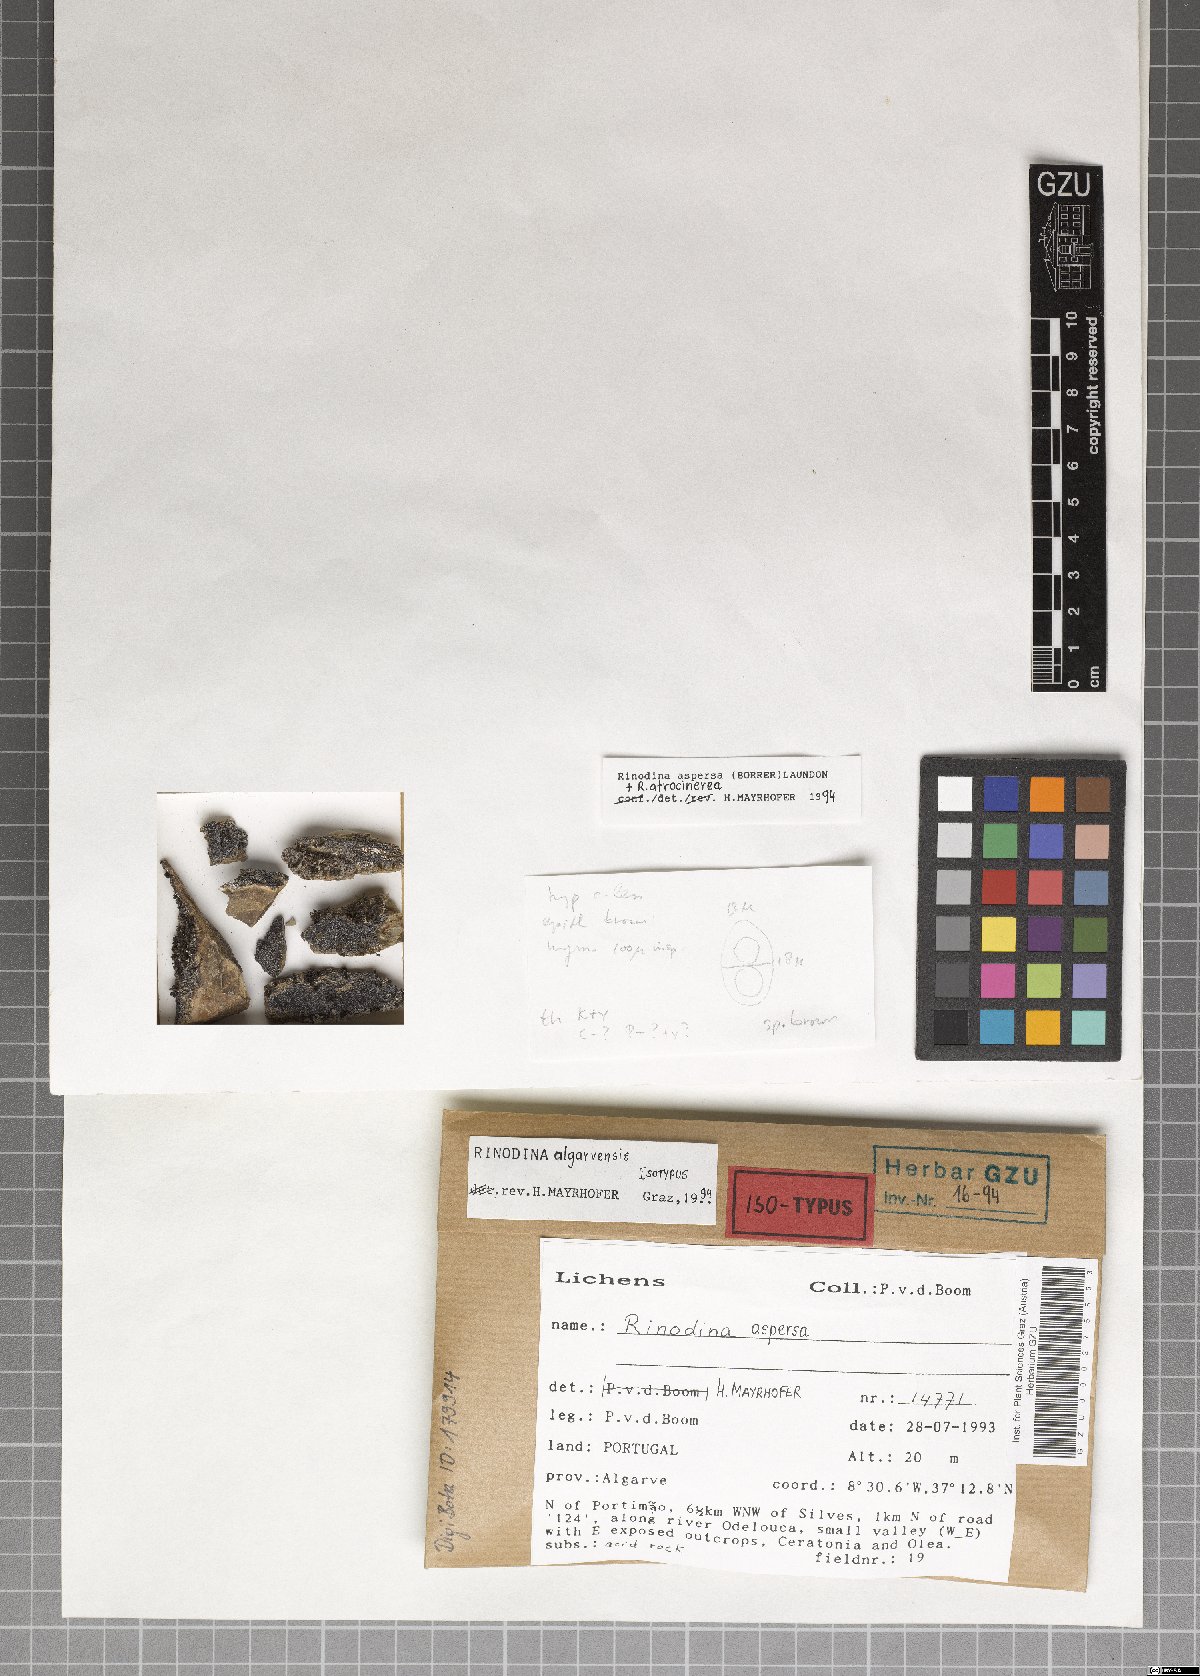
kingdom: Fungi
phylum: Ascomycota
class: Lecanoromycetes
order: Caliciales
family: Physciaceae
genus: Rinodina
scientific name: Rinodina
